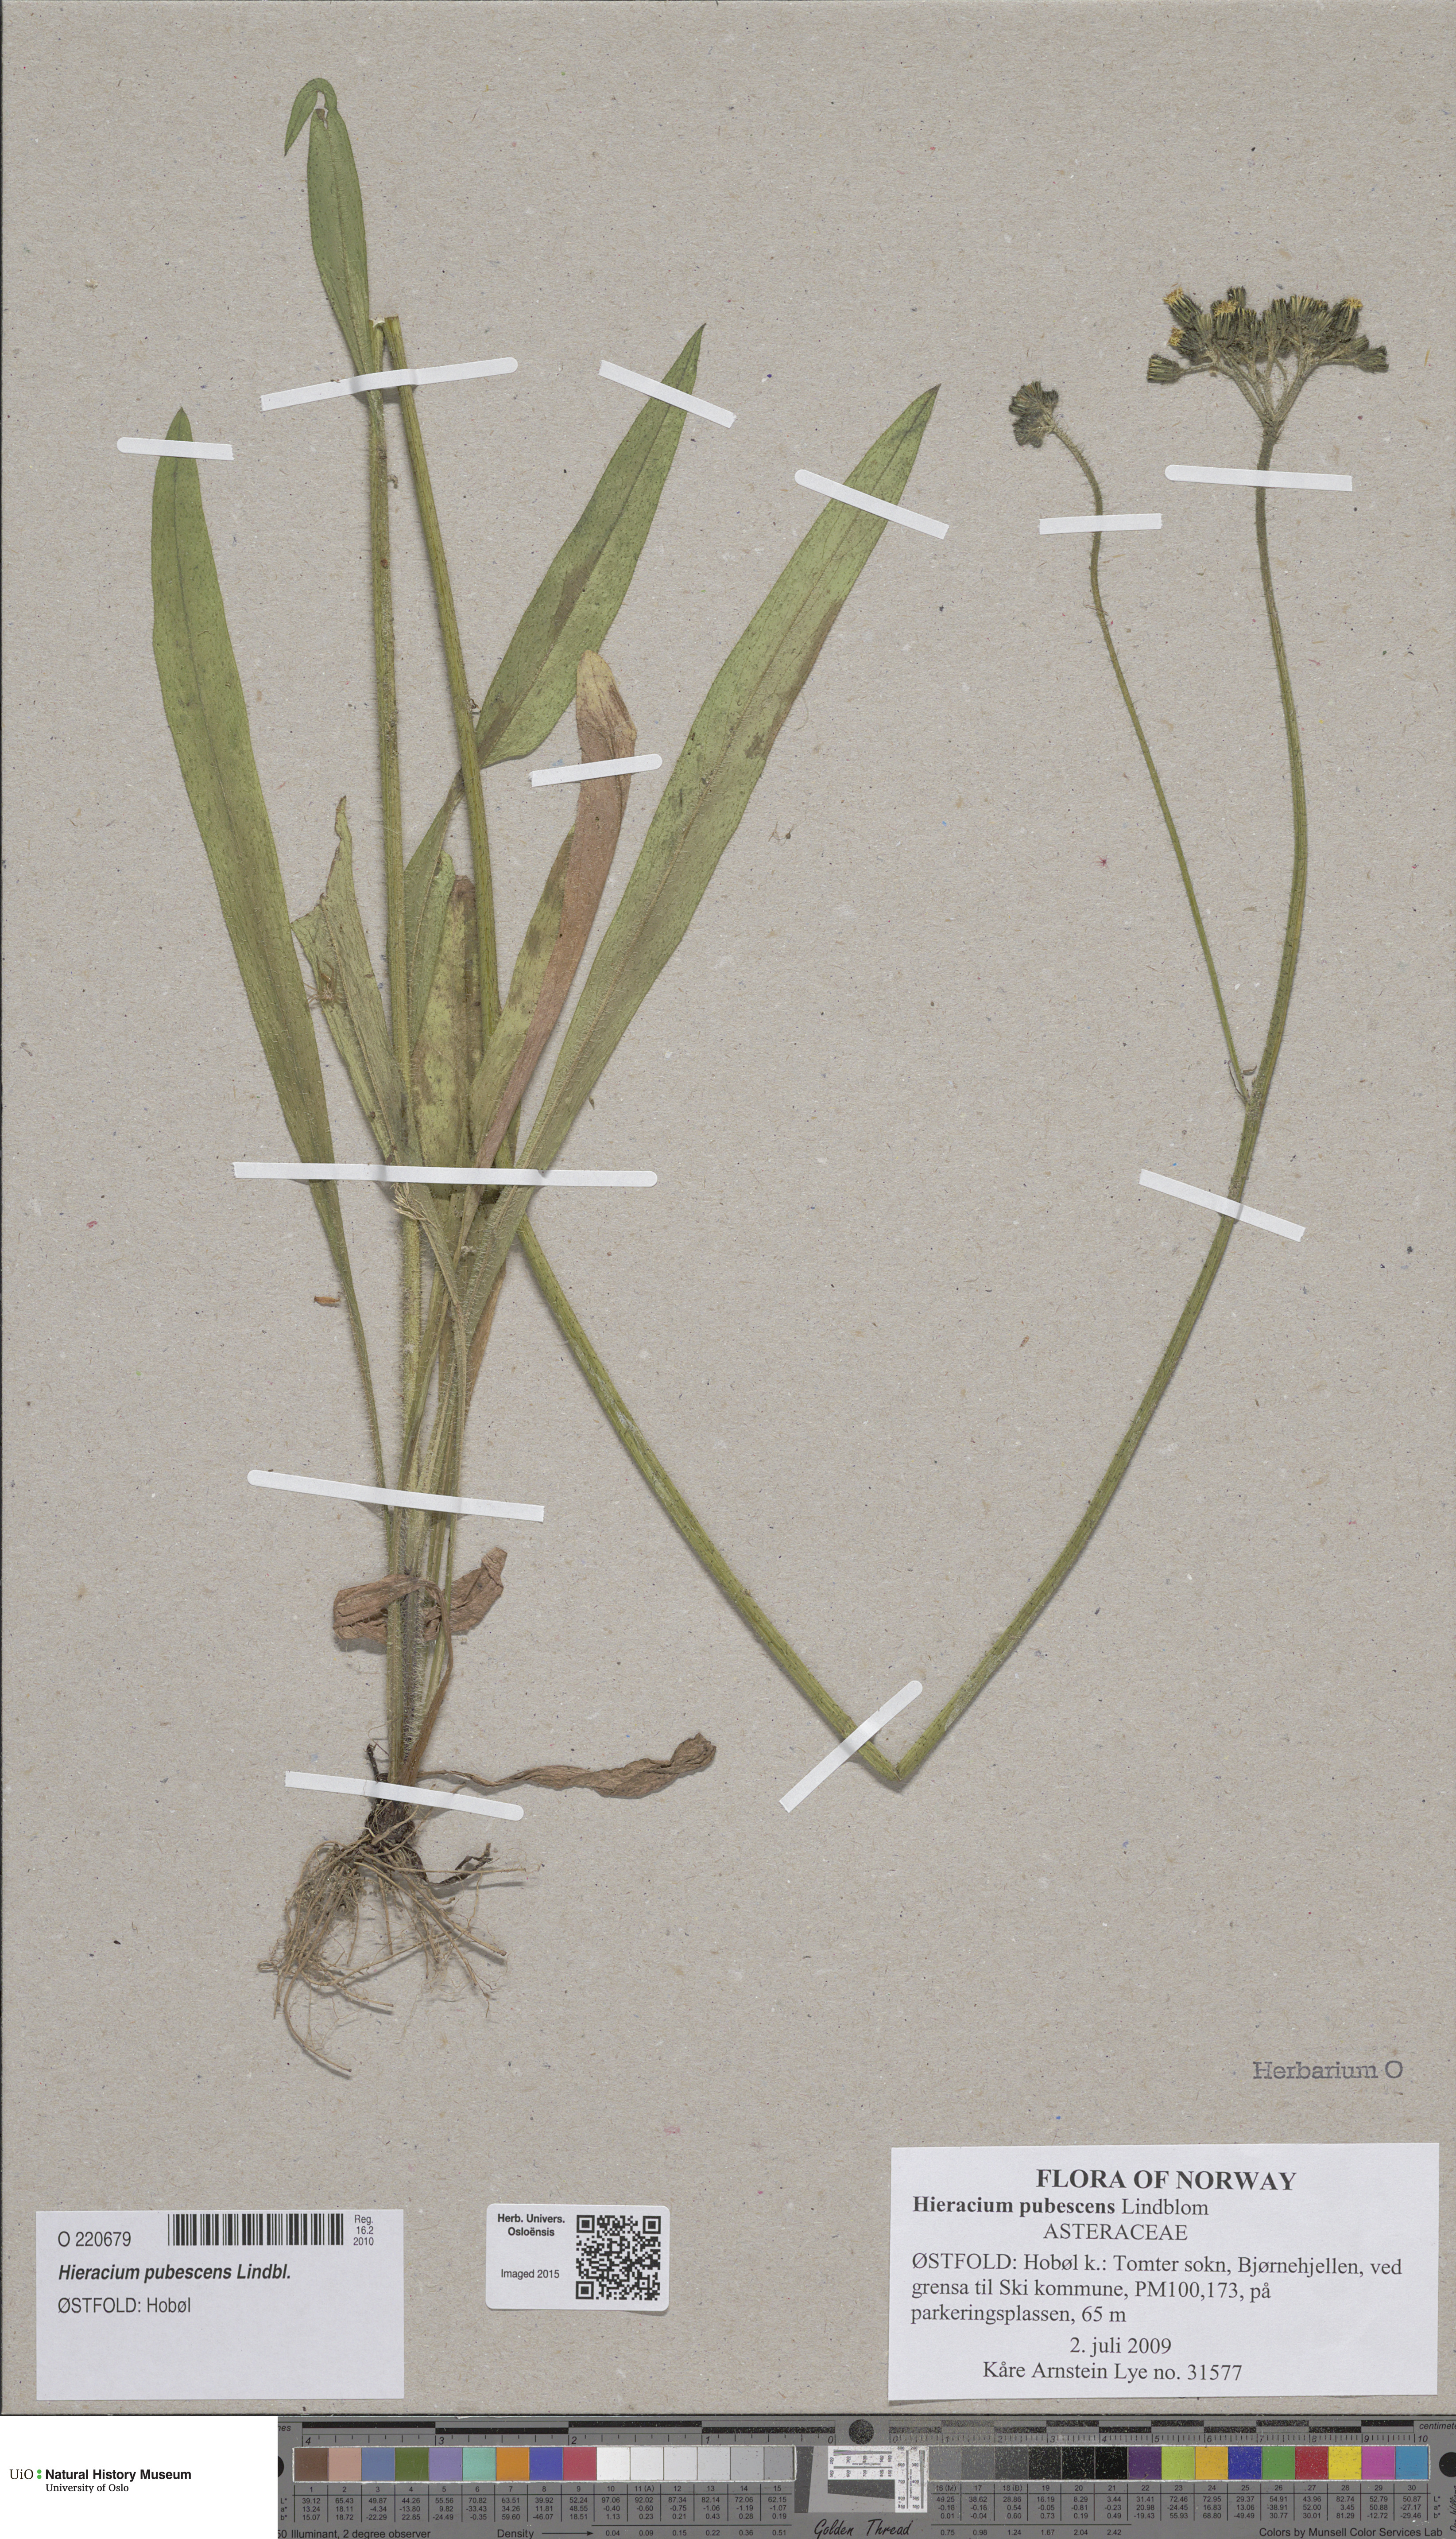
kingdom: Plantae
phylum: Tracheophyta
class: Magnoliopsida
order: Asterales
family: Asteraceae
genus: Pilosella
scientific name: Pilosella cymosa
